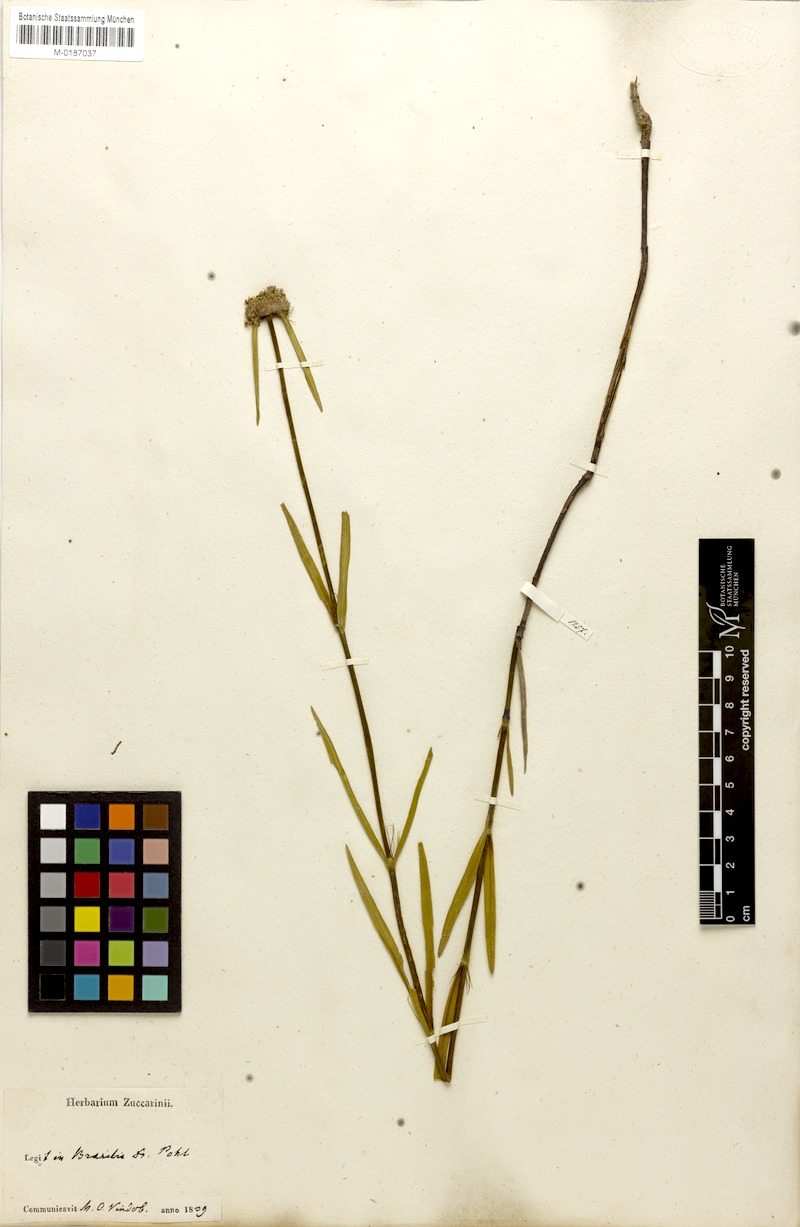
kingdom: Plantae
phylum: Tracheophyta
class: Magnoliopsida
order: Gentianales
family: Rubiaceae
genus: Spermacoce
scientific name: Spermacoce orinocensis
